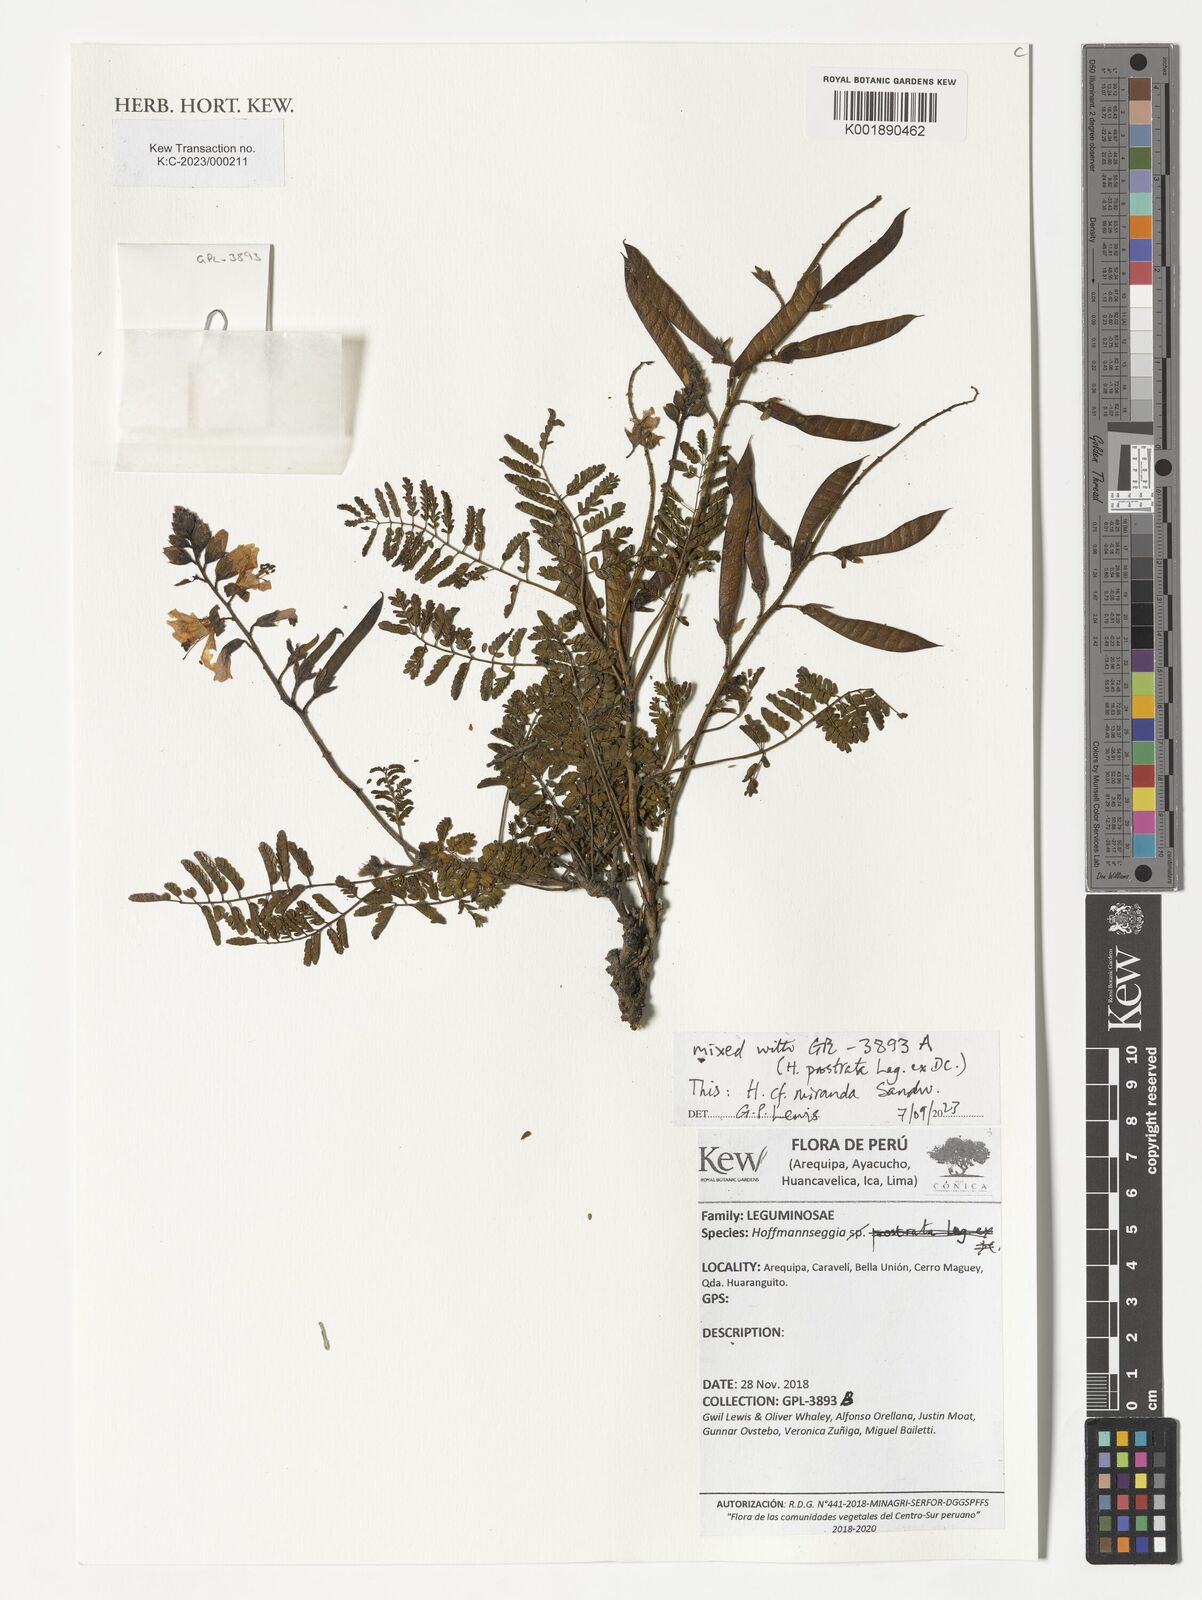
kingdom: Plantae
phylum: Tracheophyta
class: Magnoliopsida
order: Fabales
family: Fabaceae
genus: Hoffmannseggia
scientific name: Hoffmannseggia miranda
